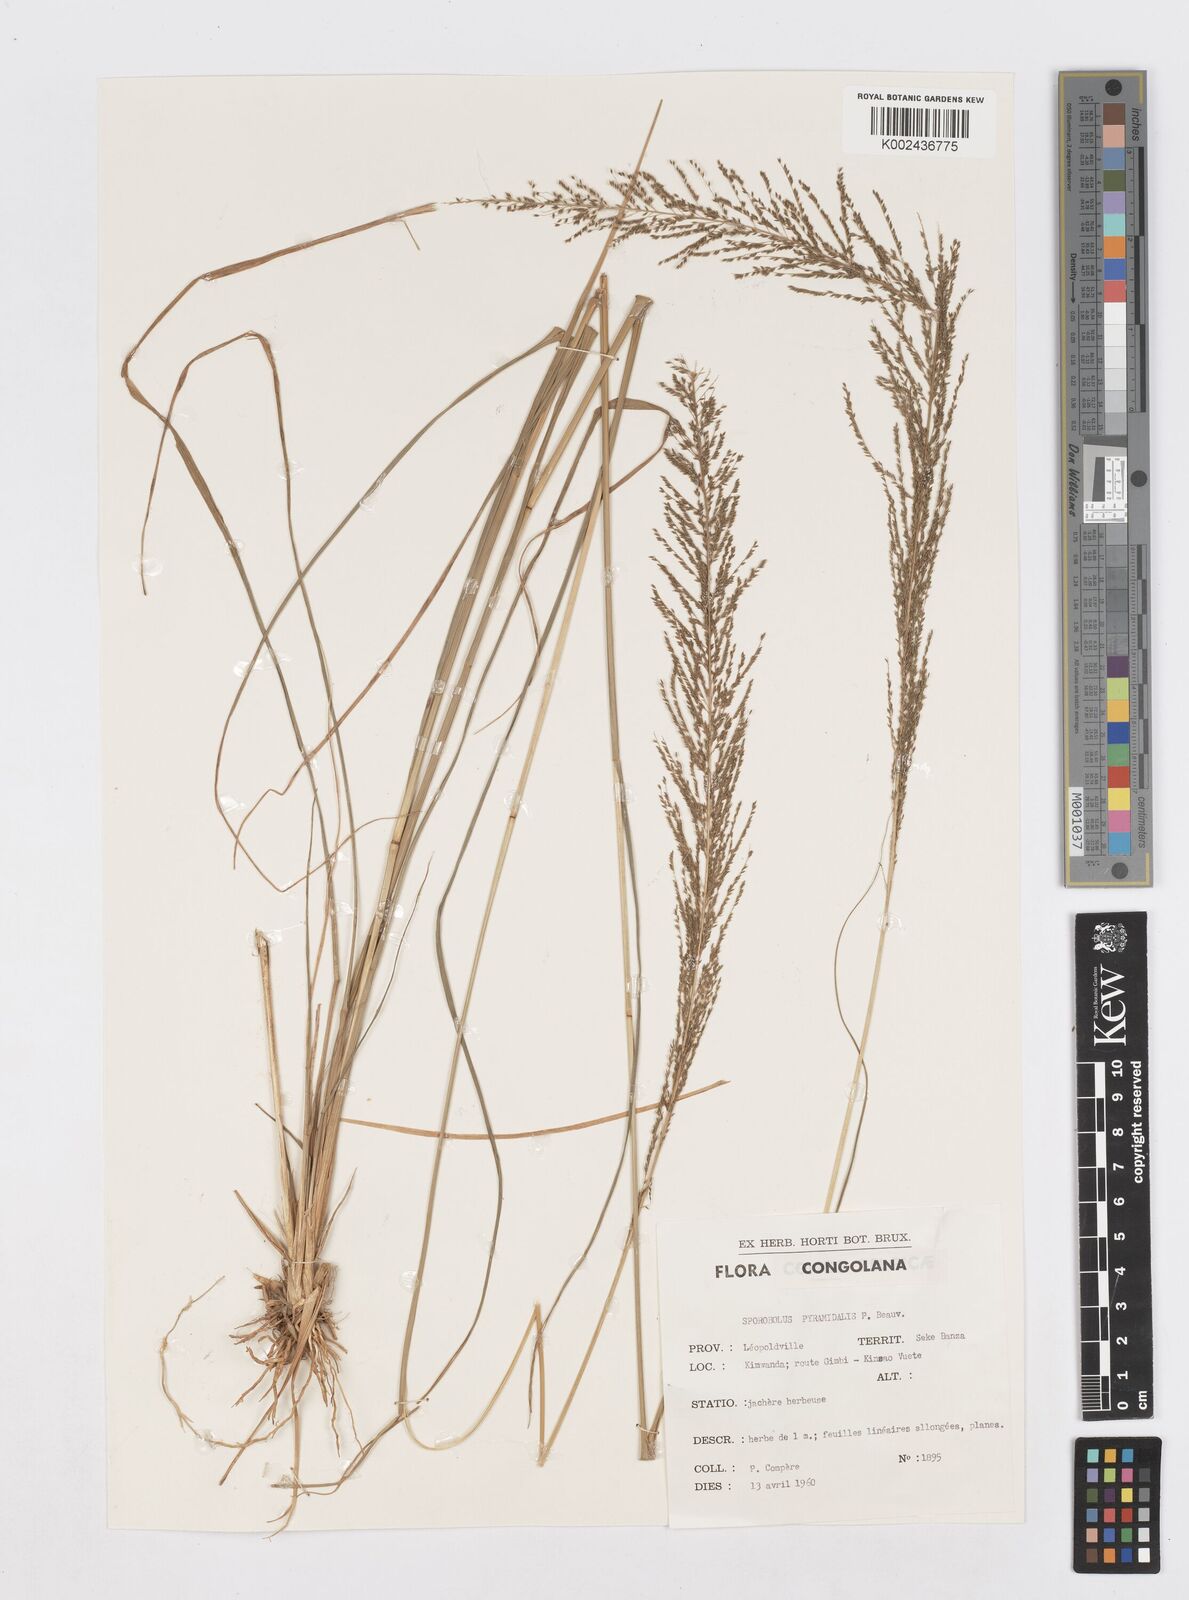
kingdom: Plantae
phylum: Tracheophyta
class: Liliopsida
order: Poales
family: Poaceae
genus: Sporobolus
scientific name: Sporobolus pyramidalis
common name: West indian dropseed
